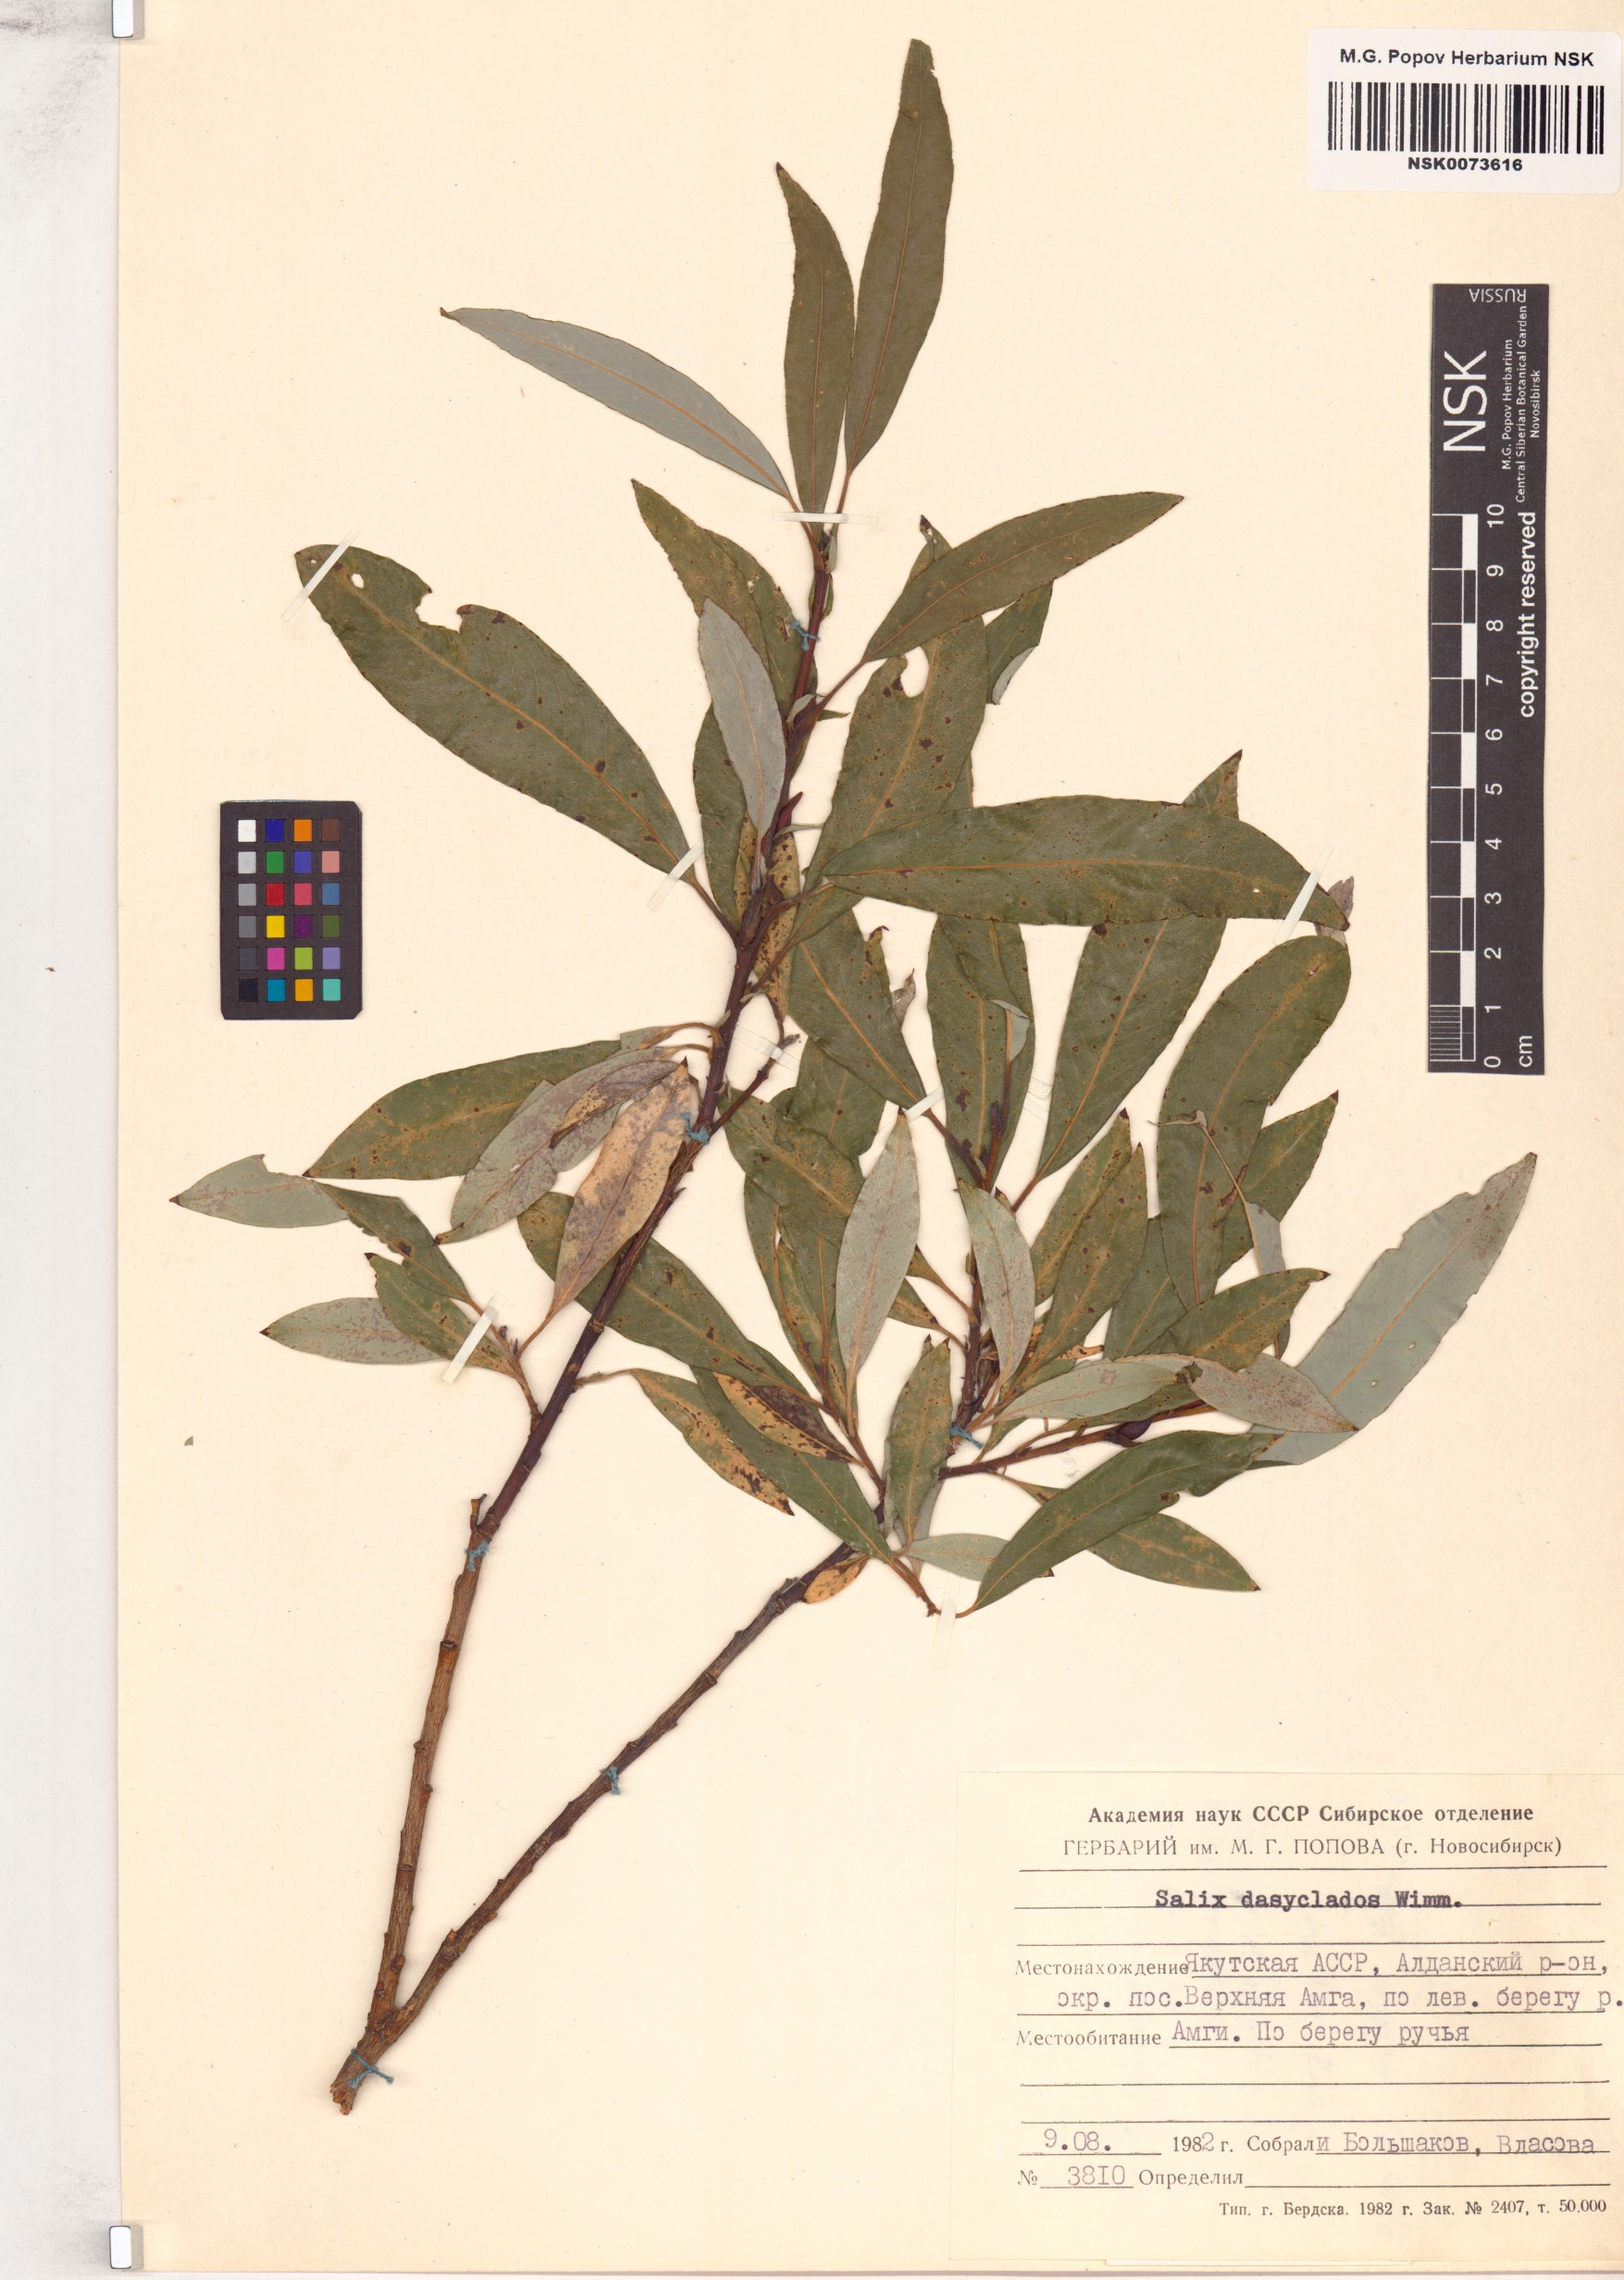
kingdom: Plantae
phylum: Tracheophyta
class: Magnoliopsida
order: Malpighiales
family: Salicaceae
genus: Salix
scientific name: Salix gmelinii
